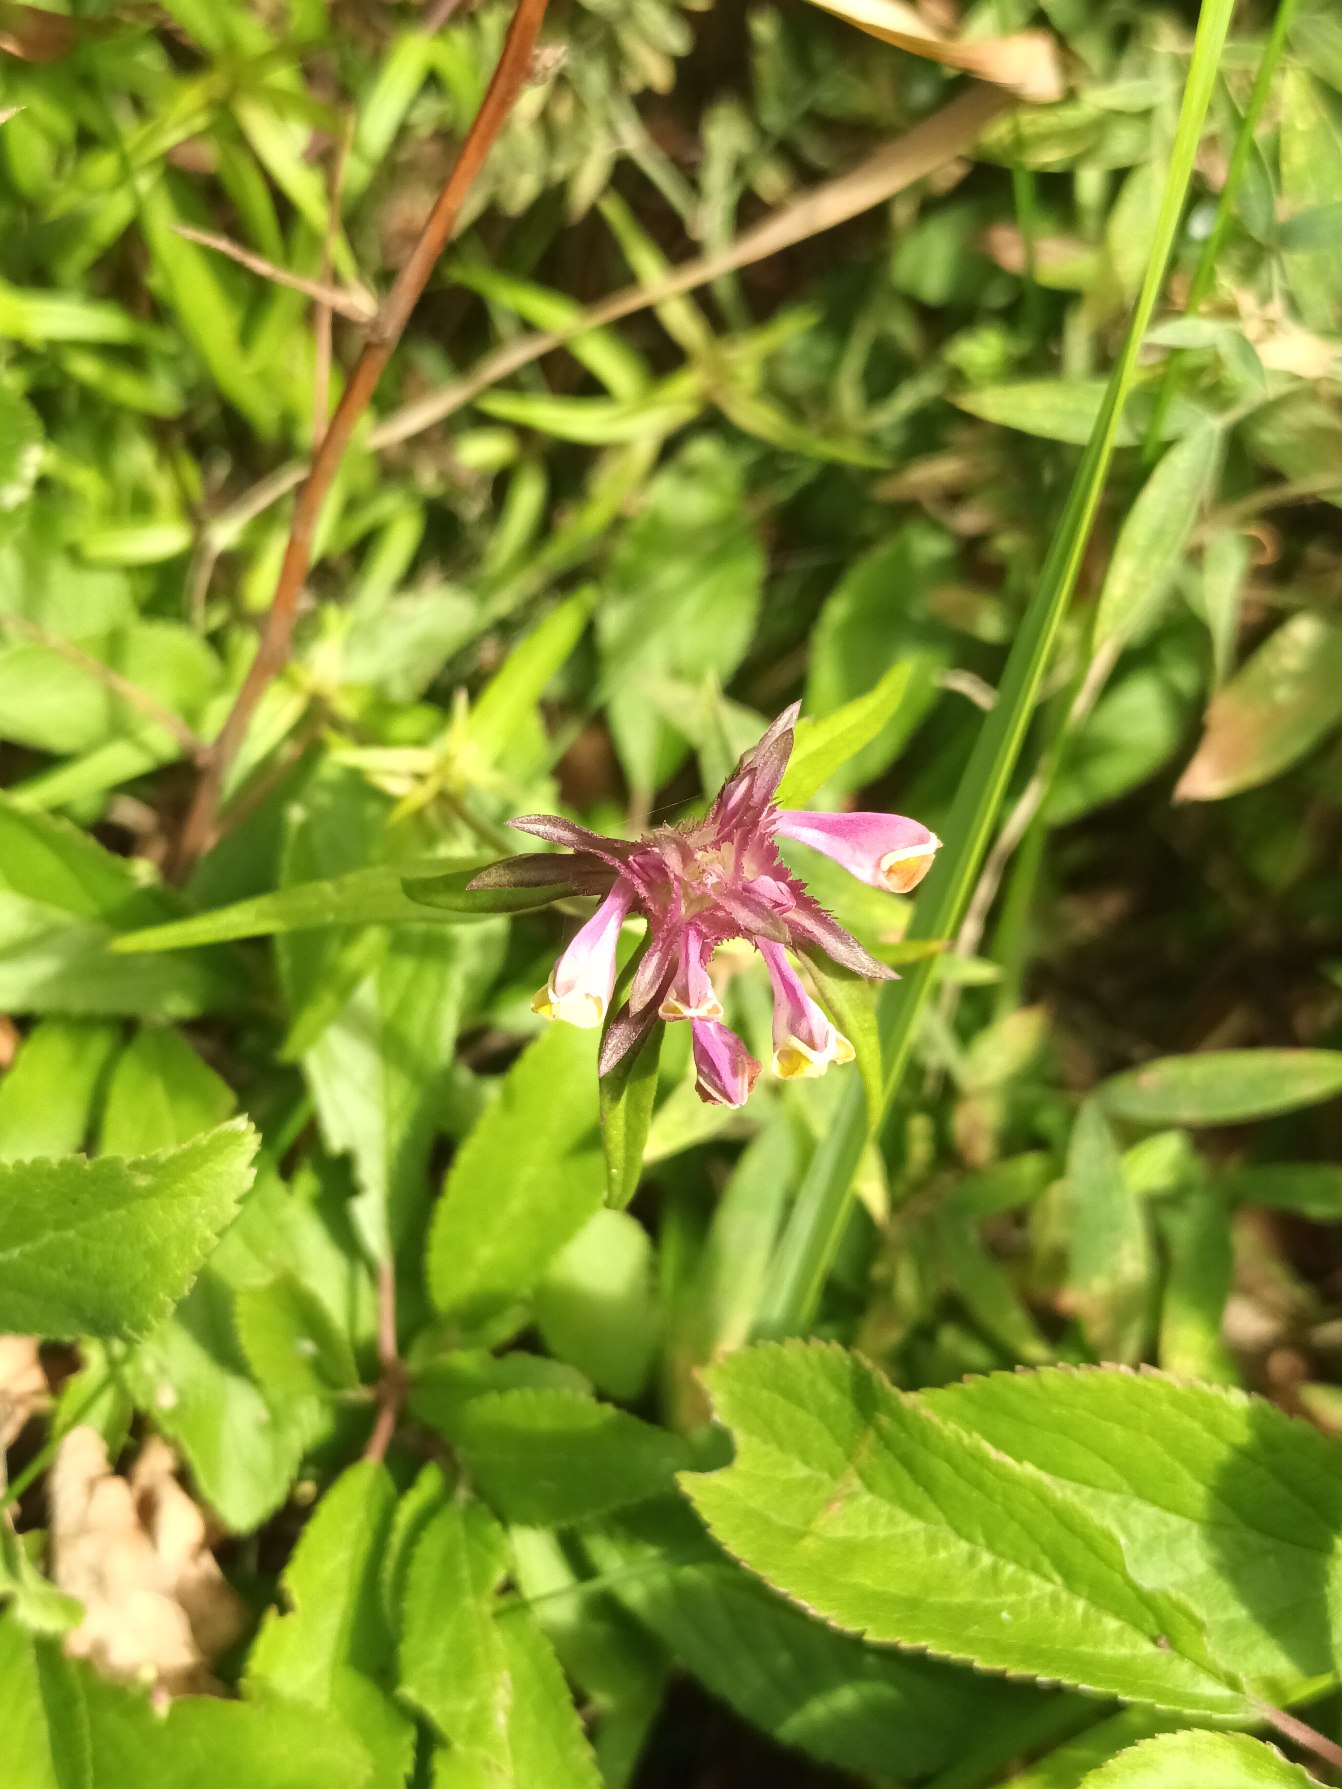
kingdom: Plantae
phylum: Tracheophyta
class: Magnoliopsida
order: Lamiales
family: Orobanchaceae
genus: Melampyrum
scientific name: Melampyrum cristatum
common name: Kantet kohvede
